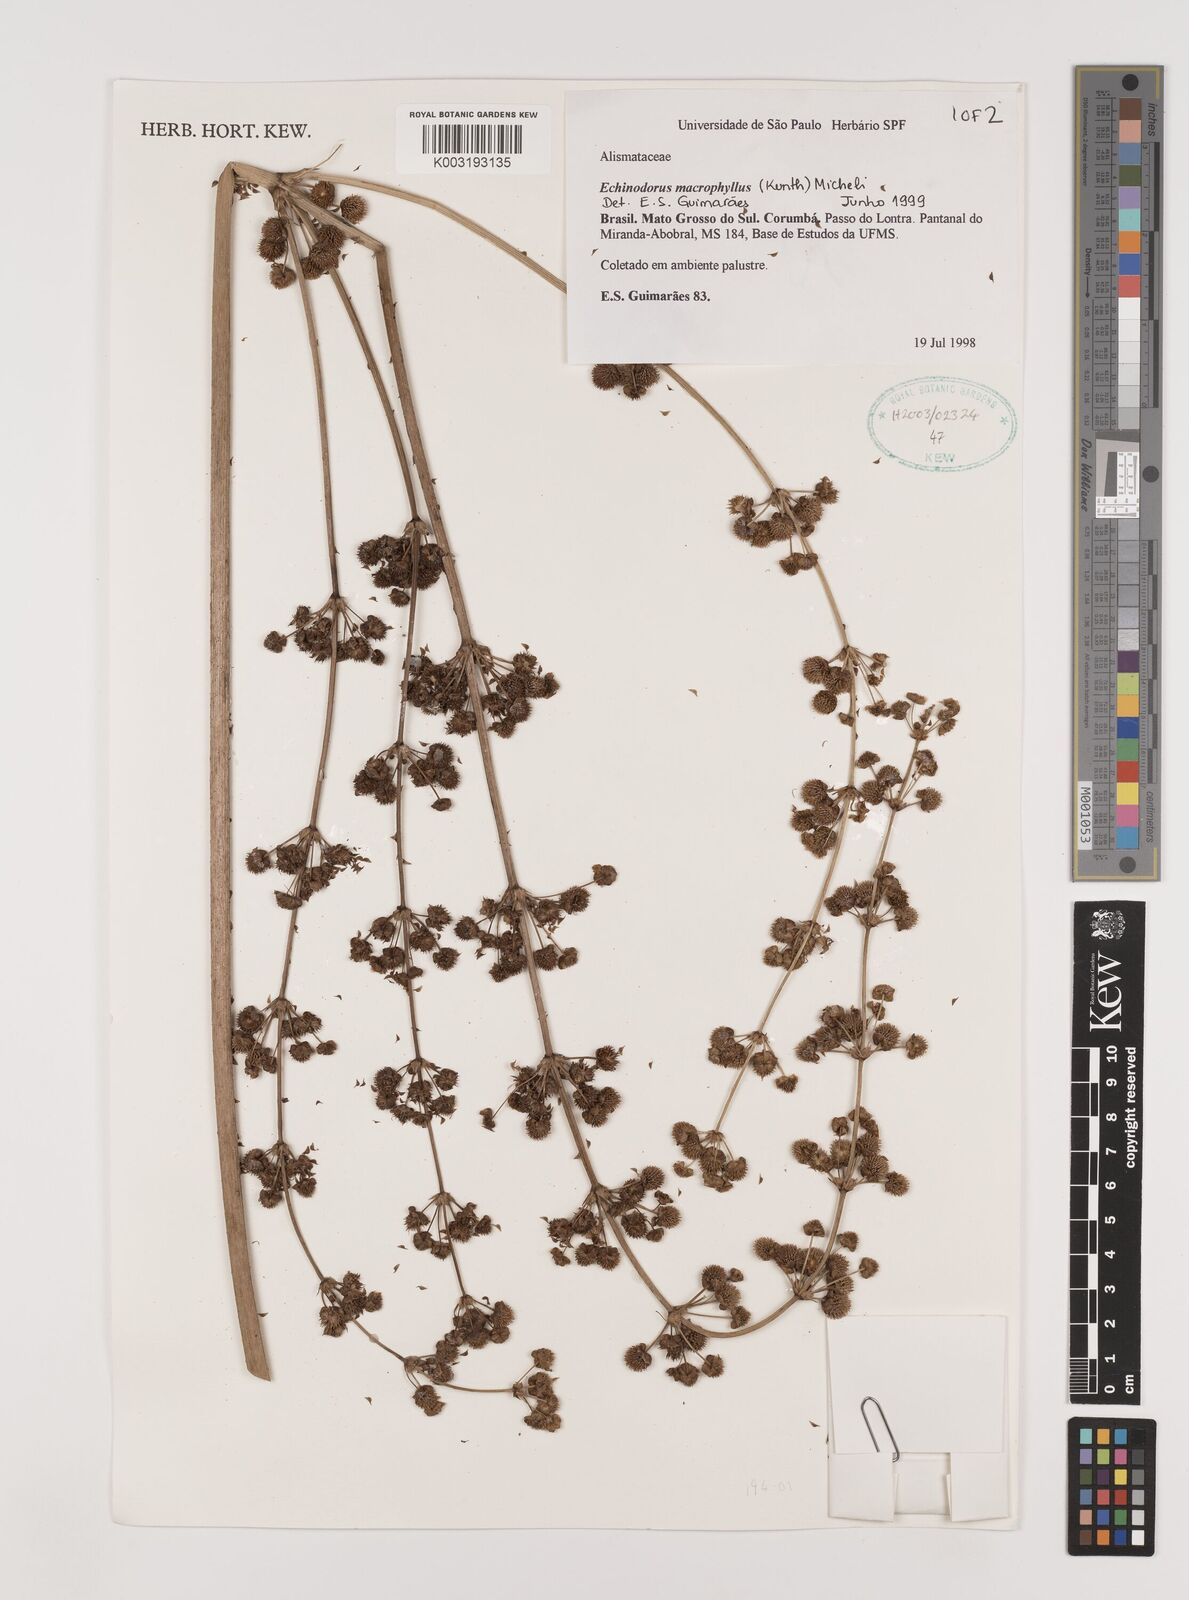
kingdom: Plantae
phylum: Tracheophyta
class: Liliopsida
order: Alismatales
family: Alismataceae
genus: Aquarius
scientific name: Aquarius macrophyllus
